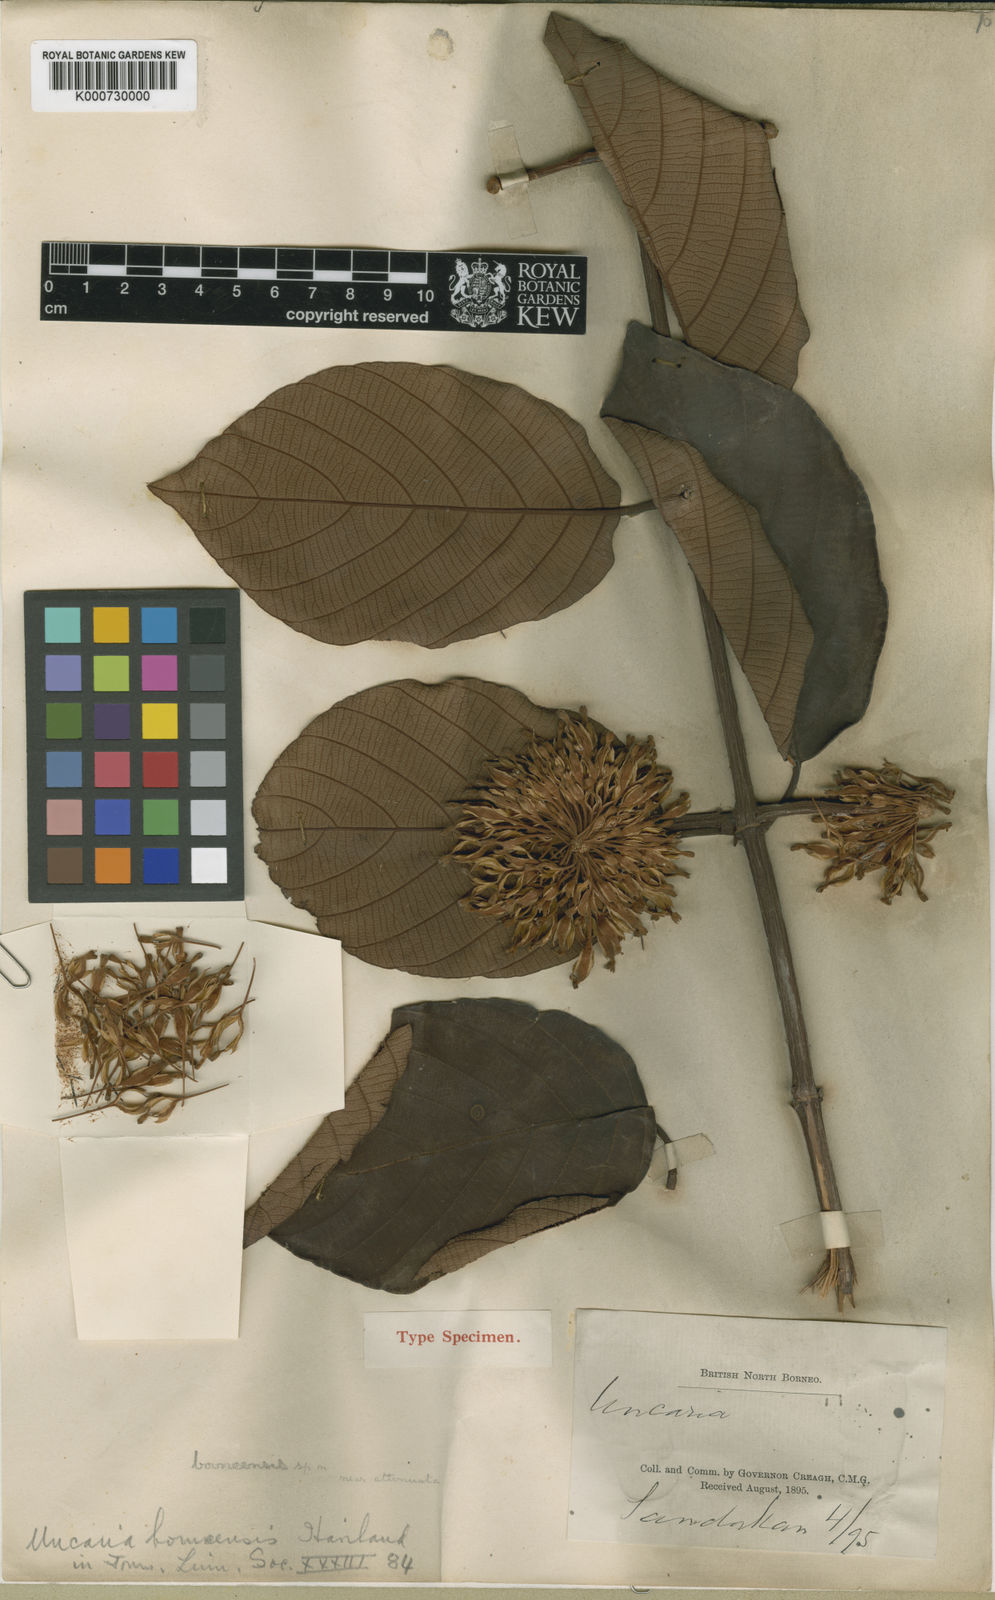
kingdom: Plantae
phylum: Tracheophyta
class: Magnoliopsida
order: Gentianales
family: Rubiaceae
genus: Uncaria
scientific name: Uncaria borneensis
